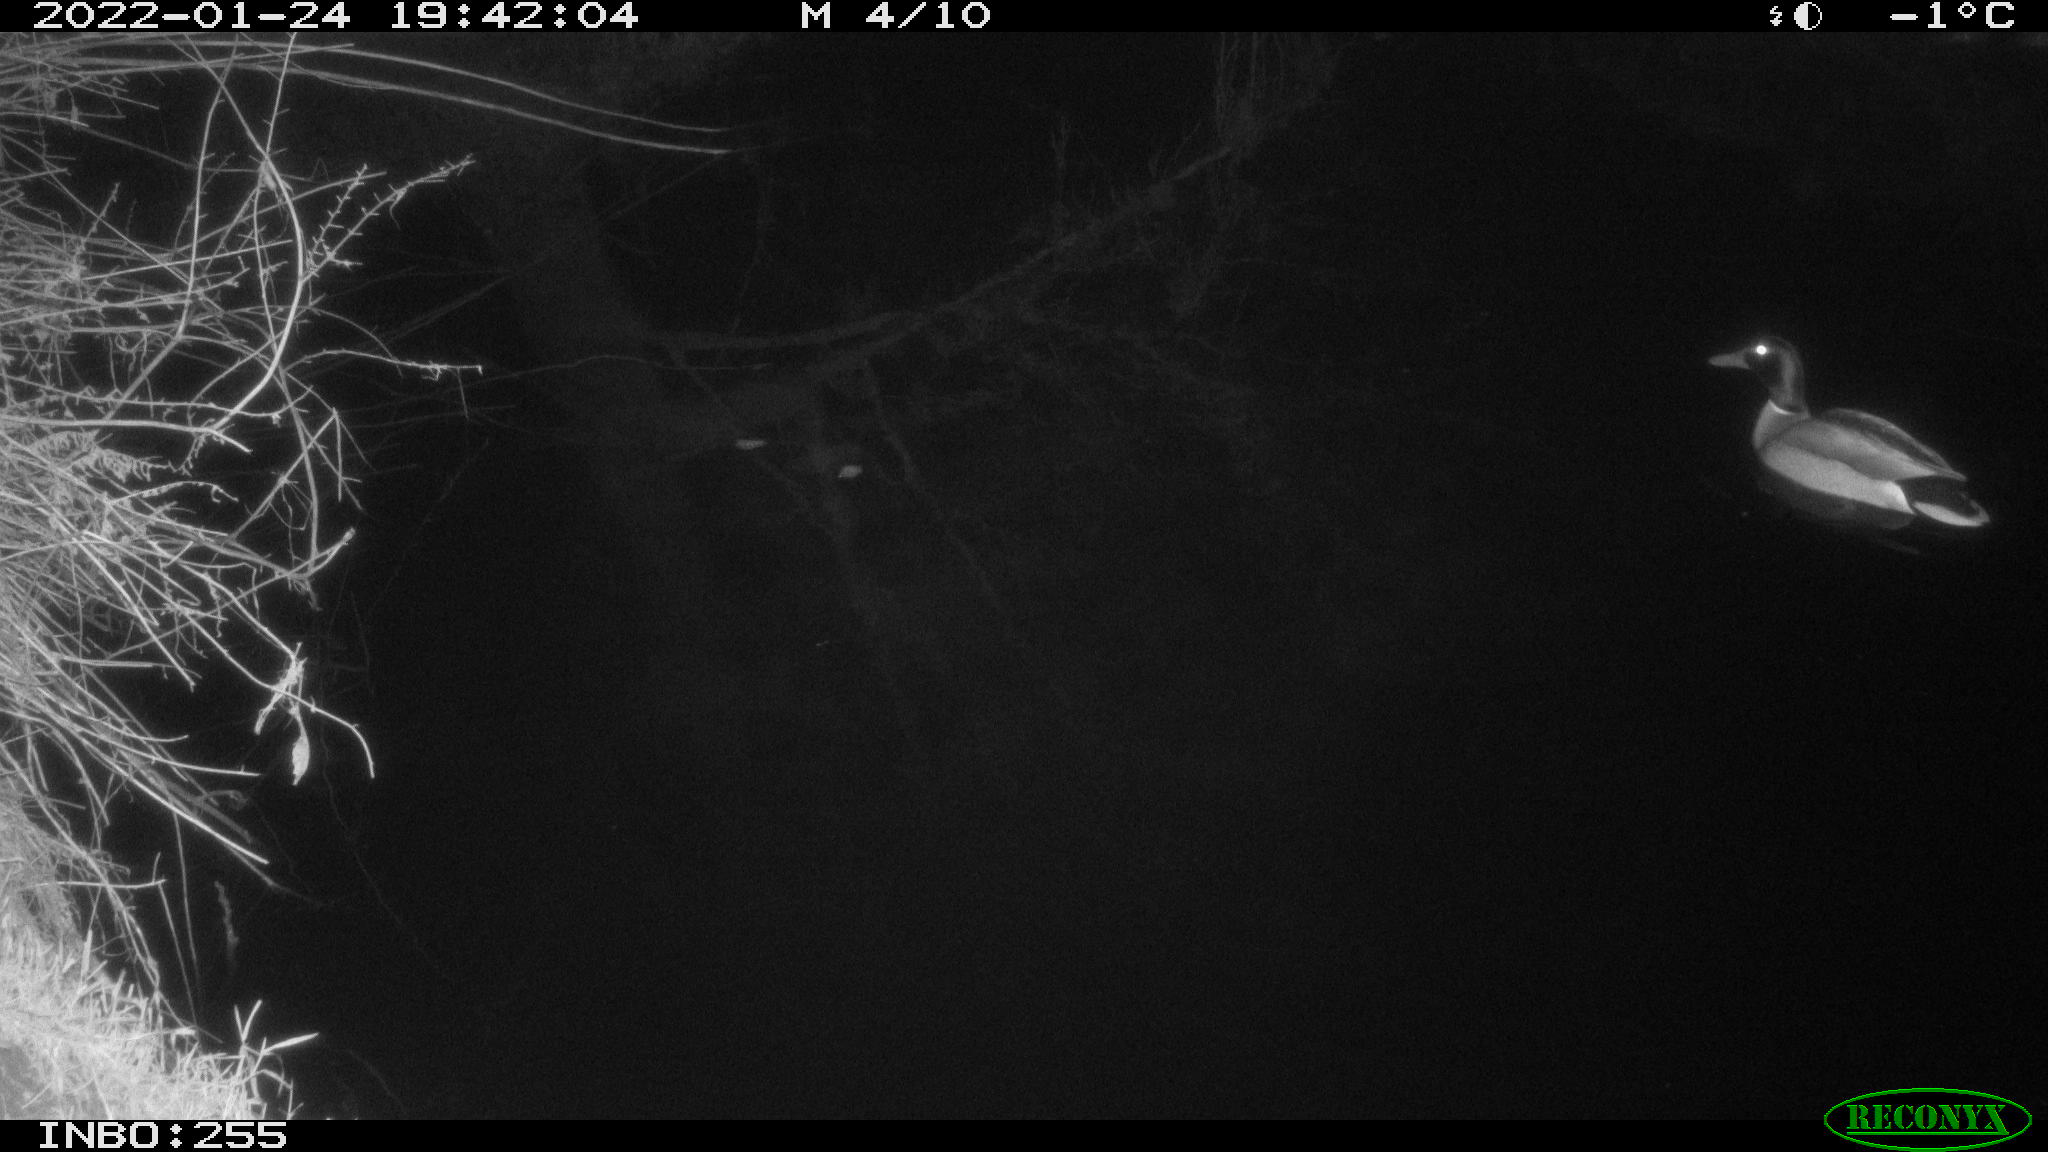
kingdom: Animalia
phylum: Chordata
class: Aves
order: Anseriformes
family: Anatidae
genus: Anas
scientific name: Anas
